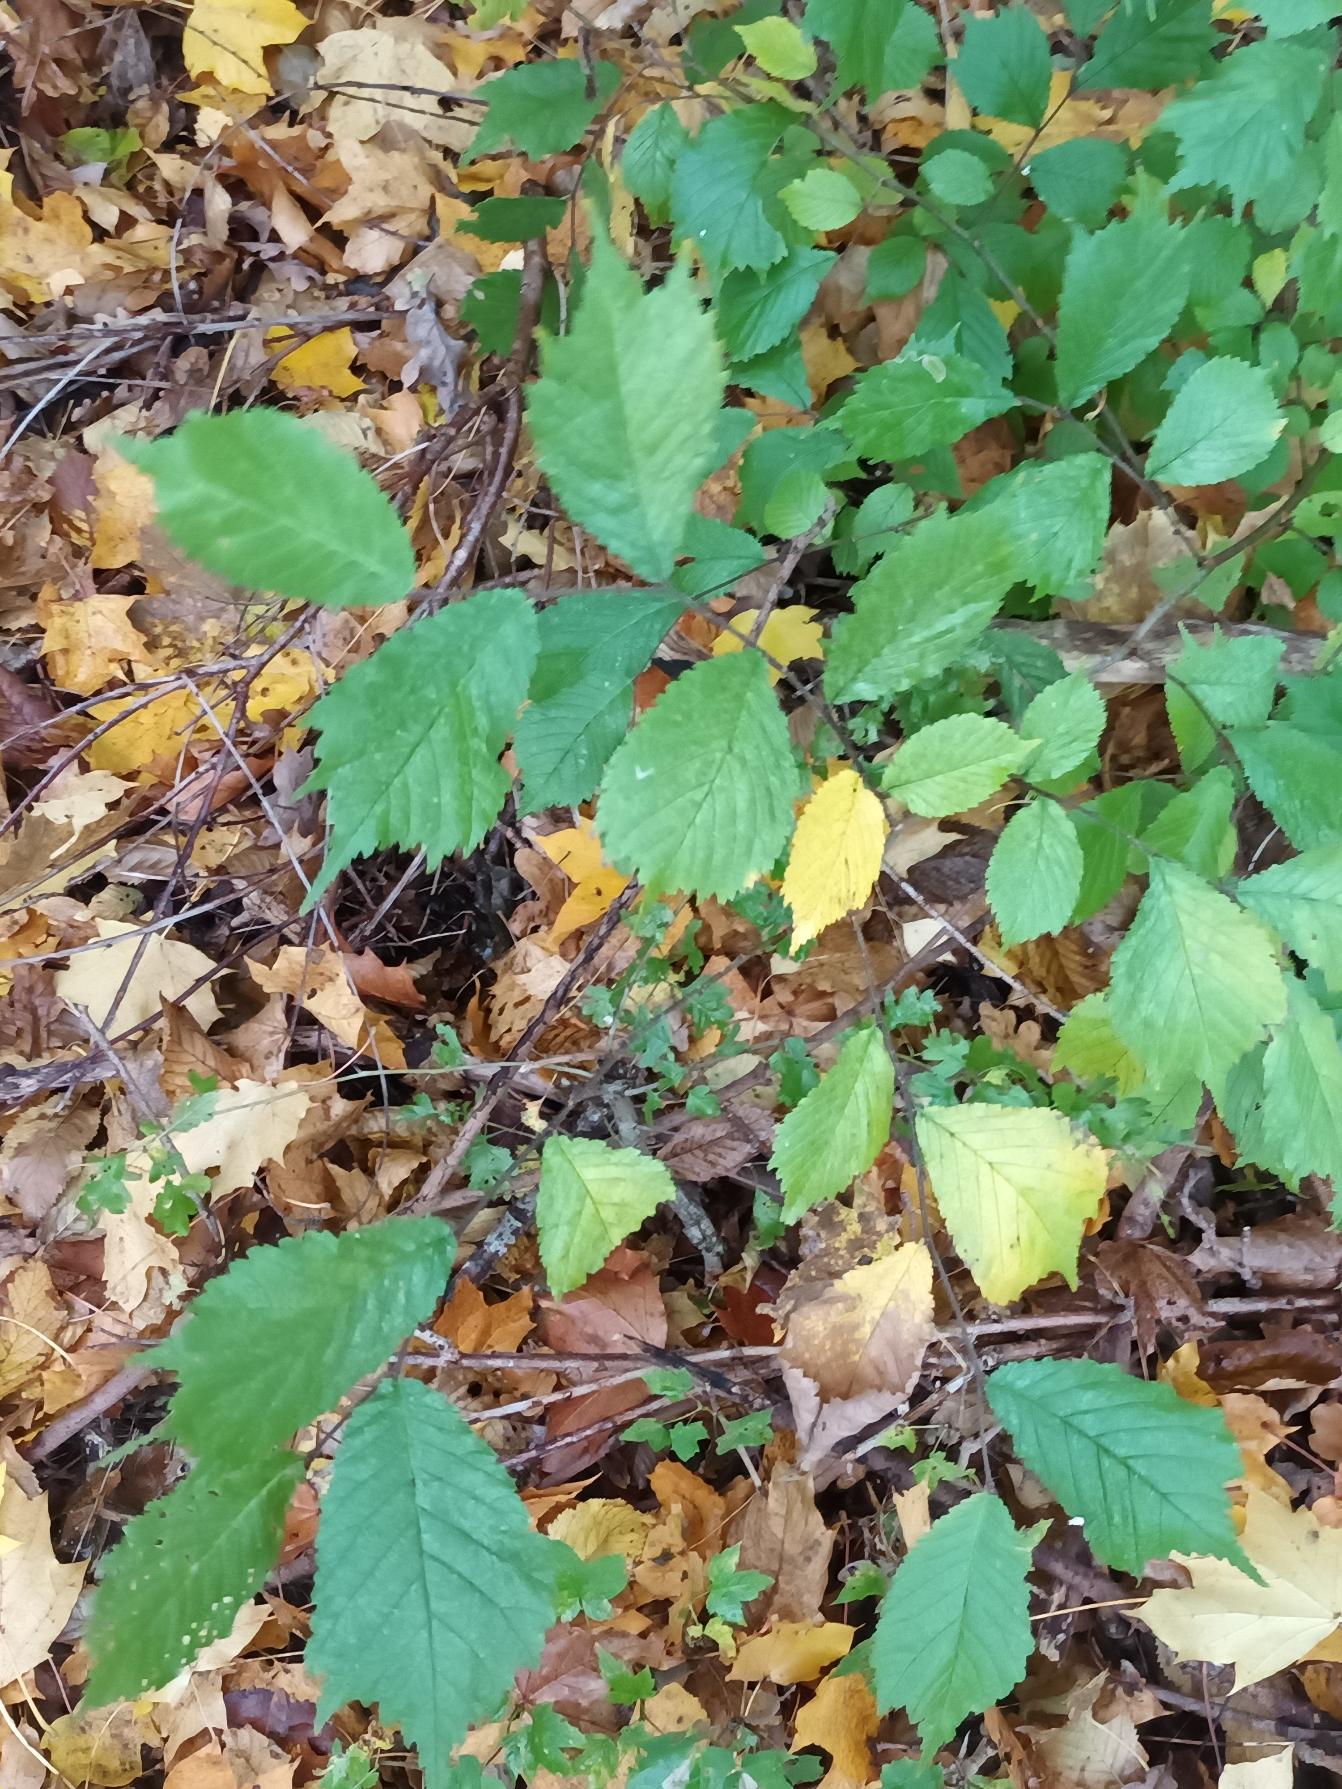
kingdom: Plantae
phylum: Tracheophyta
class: Magnoliopsida
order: Rosales
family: Ulmaceae
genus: Ulmus
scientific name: Ulmus glabra
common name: Skov-elm/storbladet elm
